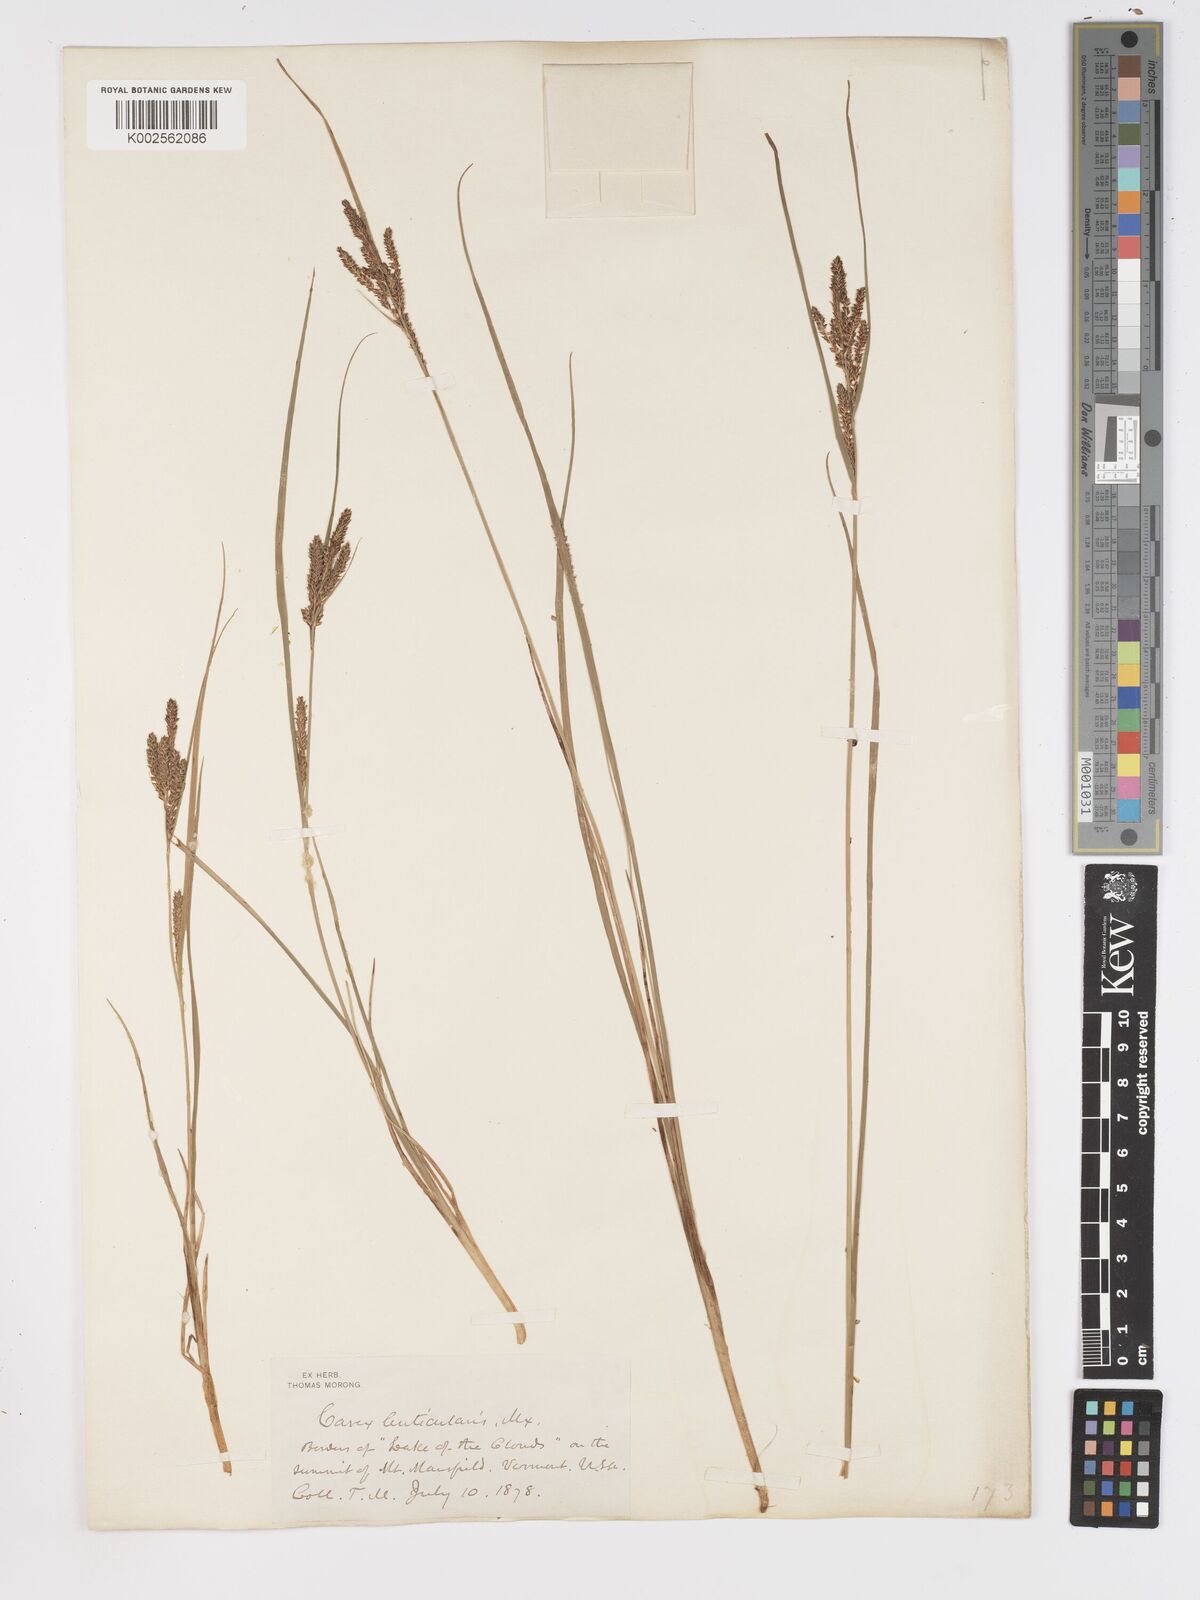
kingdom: Plantae
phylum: Tracheophyta
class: Liliopsida
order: Poales
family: Cyperaceae
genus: Carex
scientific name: Carex lenticularis
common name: Lakeshore sedge
